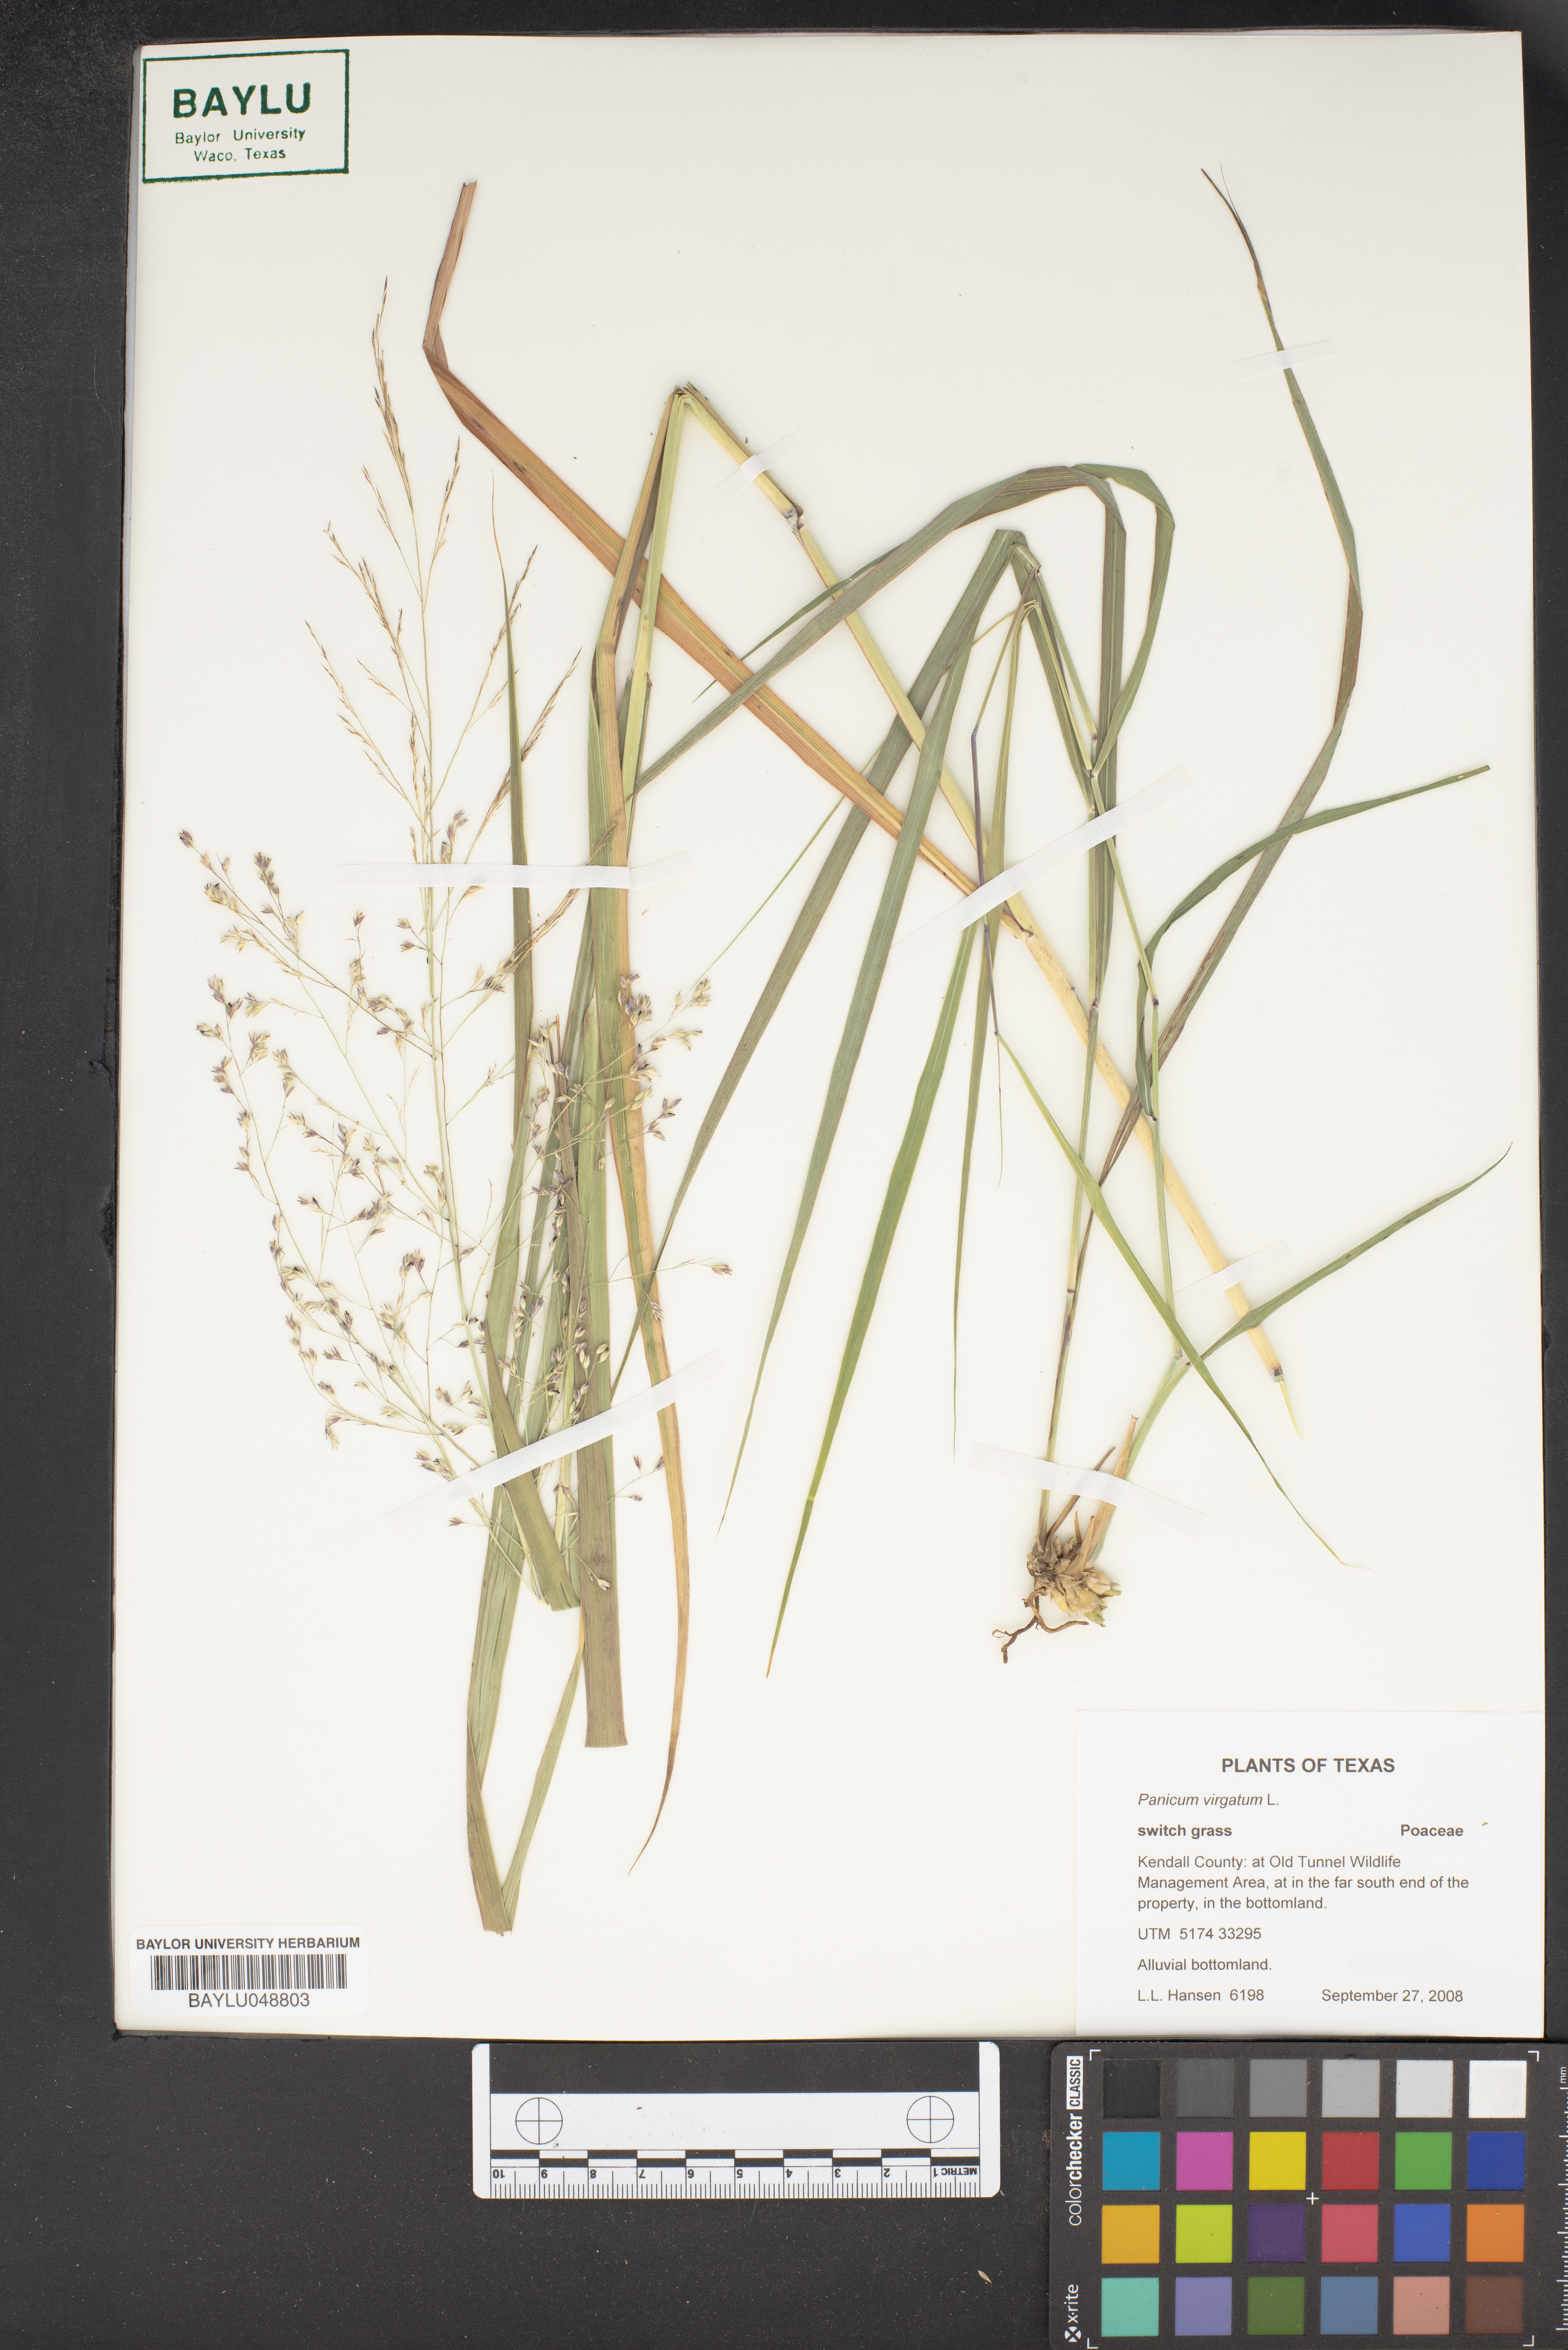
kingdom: Plantae
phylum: Tracheophyta
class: Liliopsida
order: Poales
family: Poaceae
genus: Panicum
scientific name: Panicum virgatum
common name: Switchgrass
